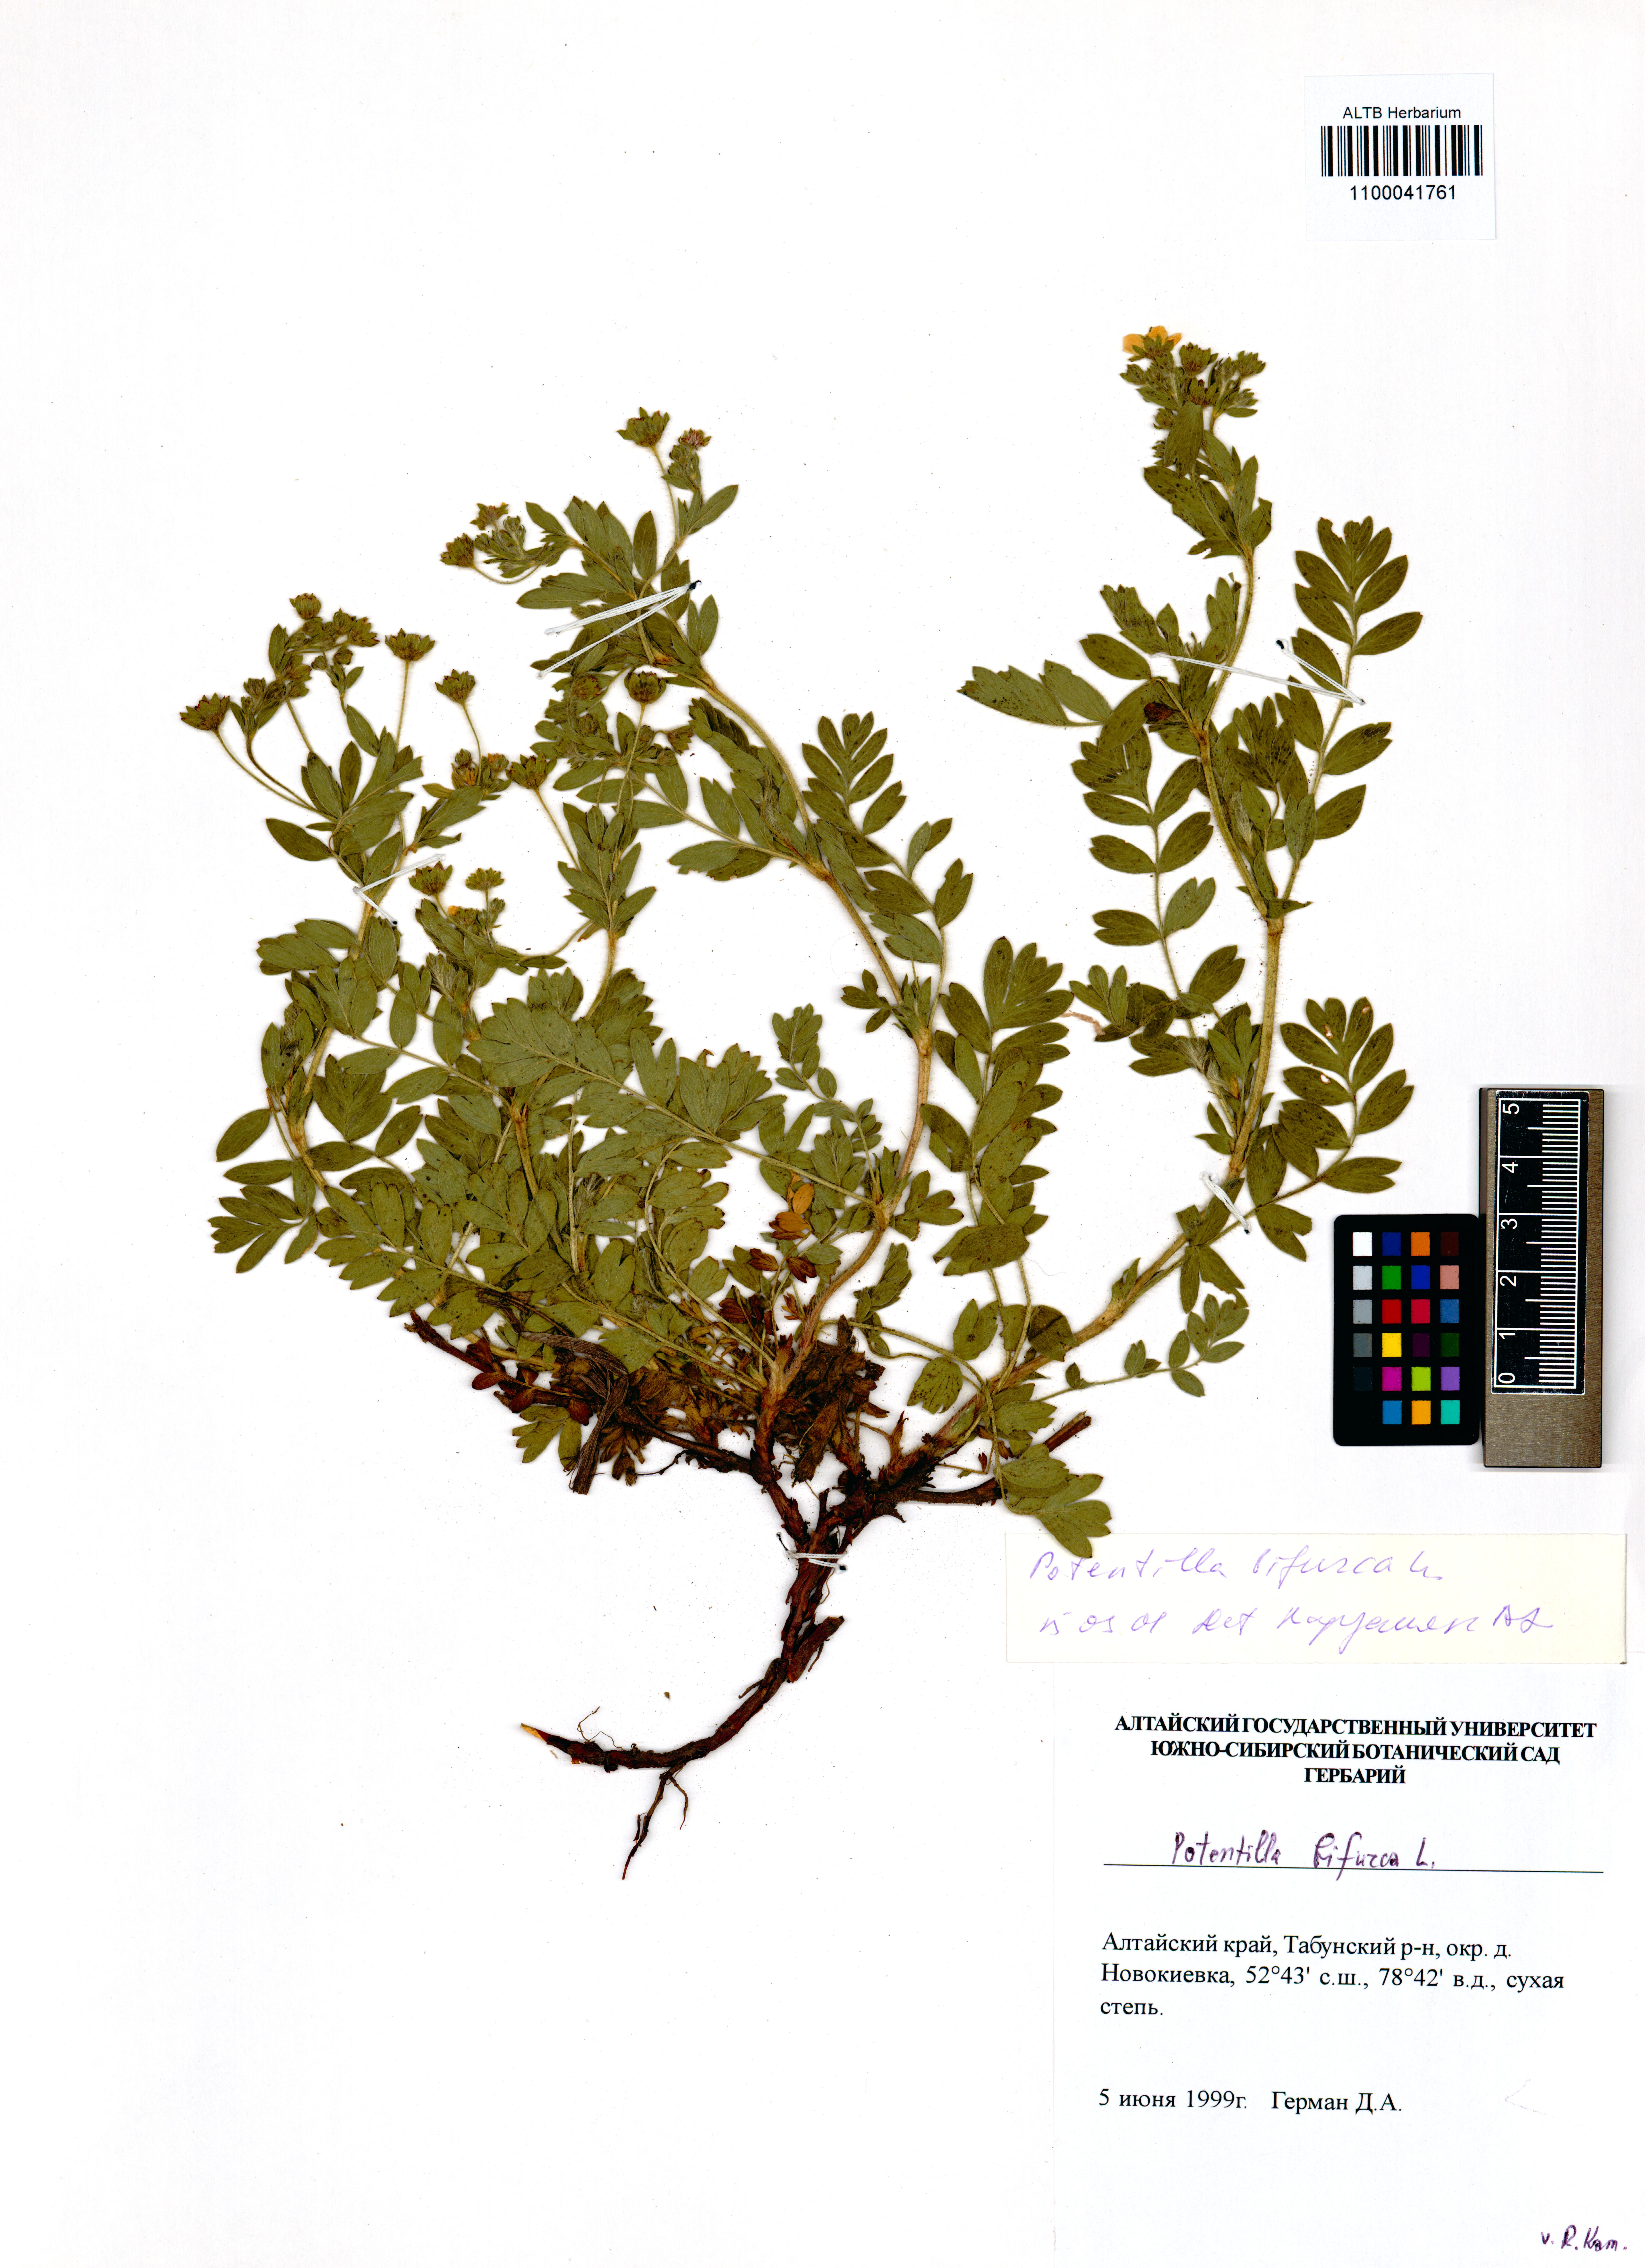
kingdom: Plantae
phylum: Tracheophyta
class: Magnoliopsida
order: Rosales
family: Rosaceae
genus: Sibbaldianthe
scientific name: Sibbaldianthe bifurca
